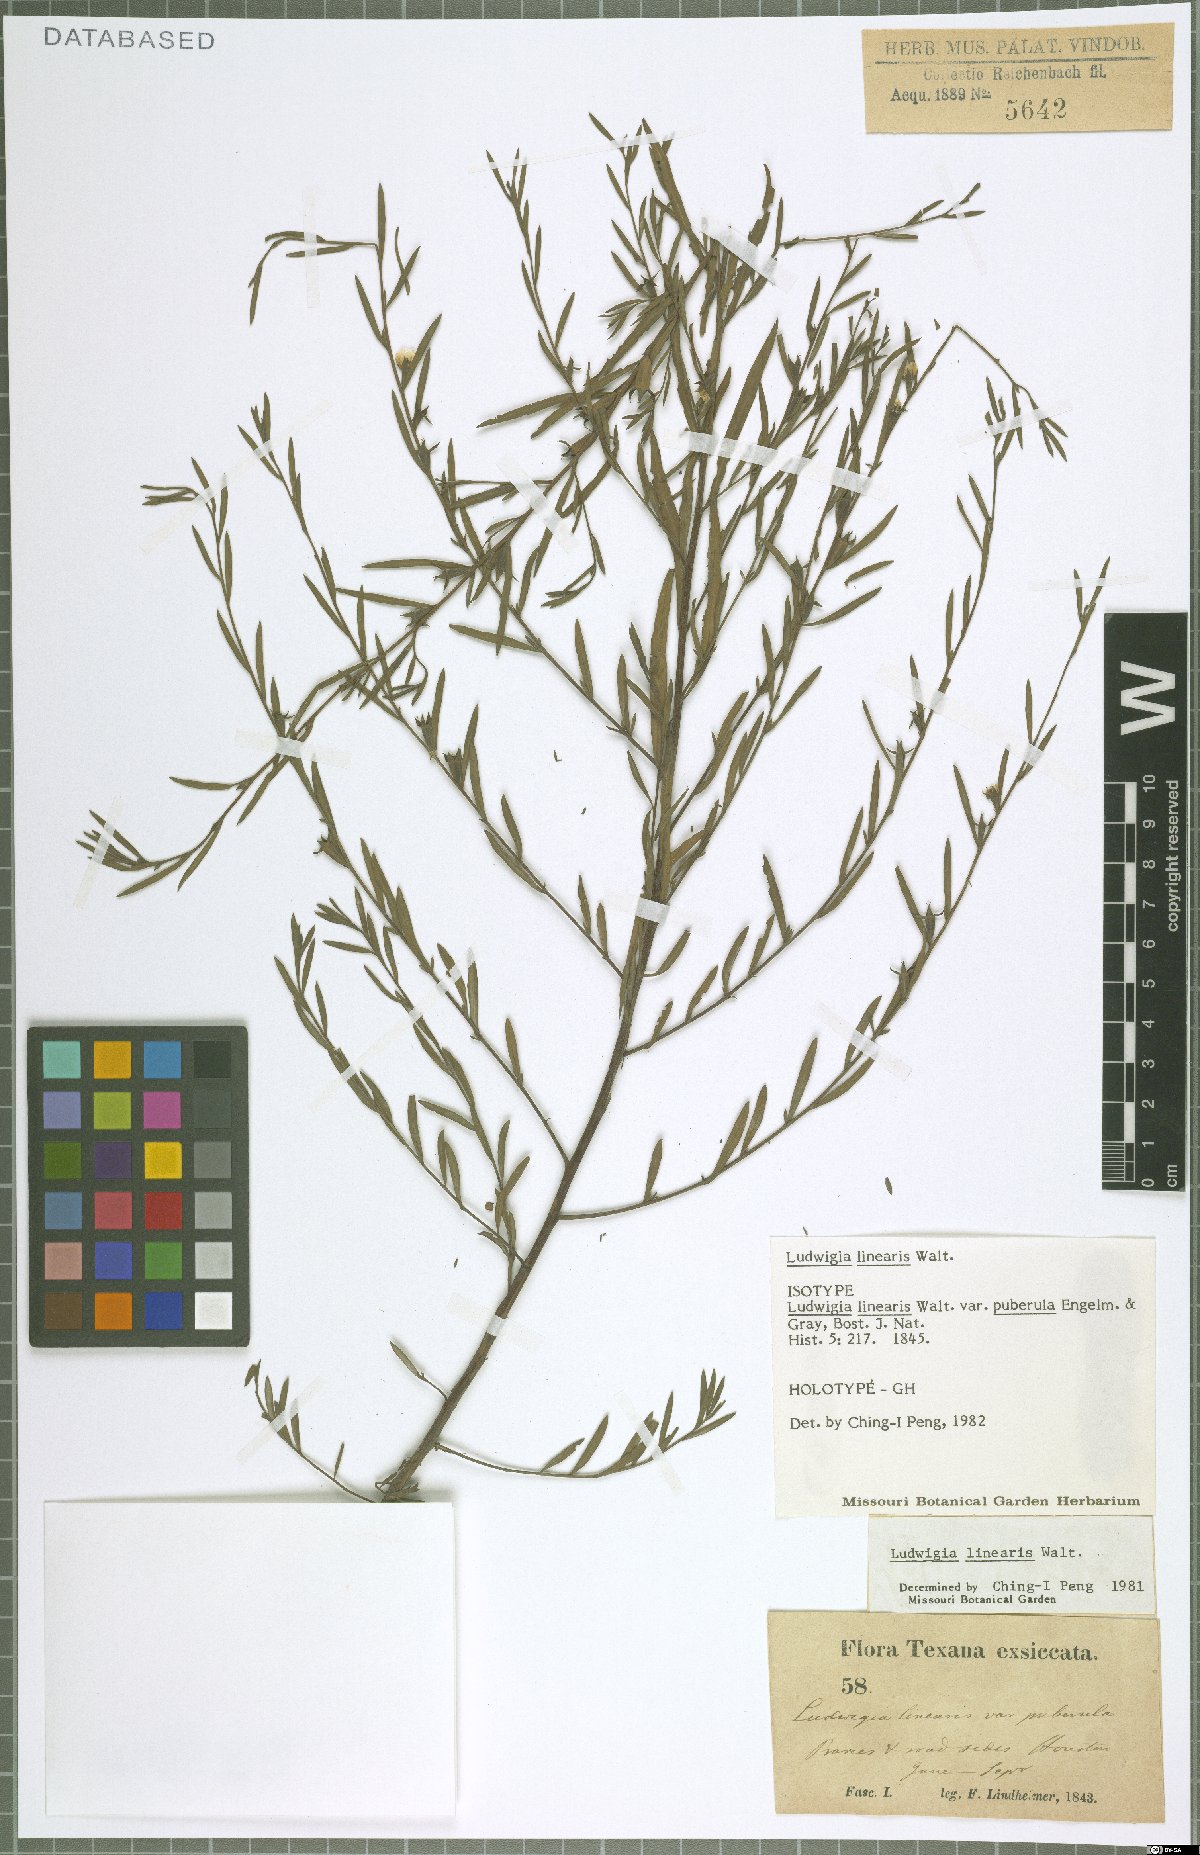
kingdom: Plantae
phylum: Tracheophyta
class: Magnoliopsida
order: Myrtales
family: Onagraceae
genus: Ludwigia
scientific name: Ludwigia linearis
